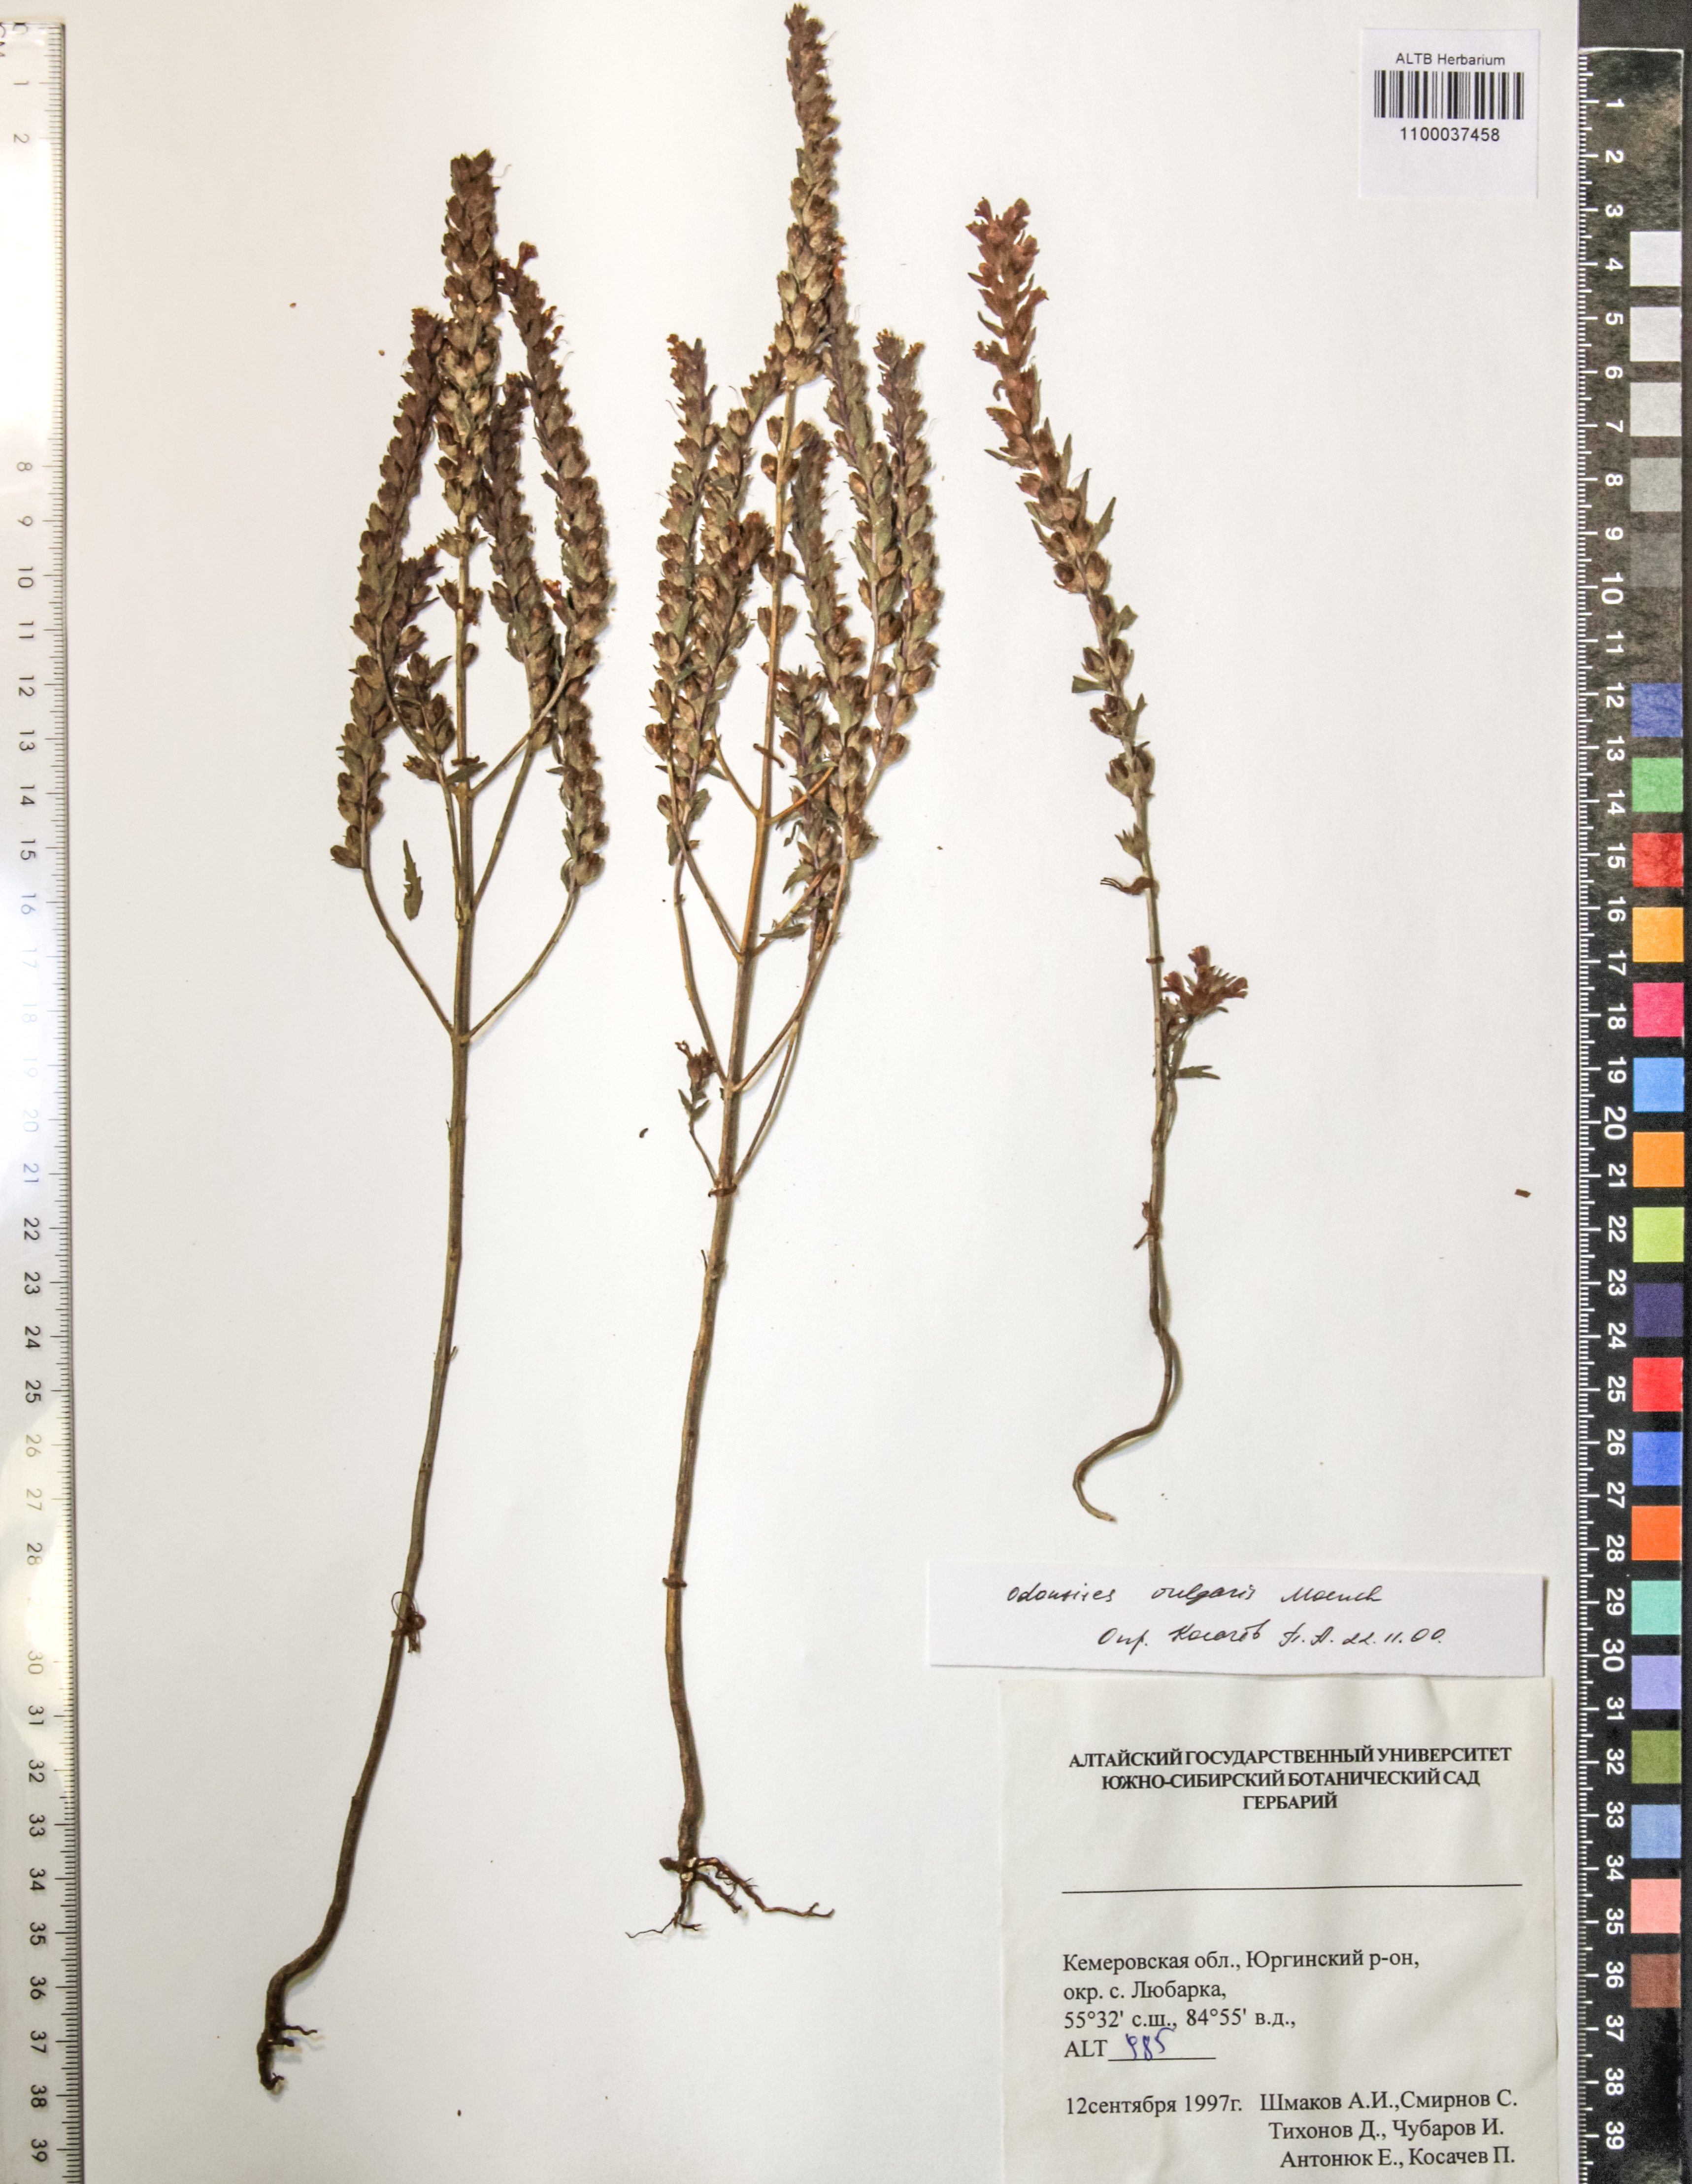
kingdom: Plantae
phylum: Tracheophyta
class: Magnoliopsida
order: Lamiales
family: Orobanchaceae
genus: Odontites
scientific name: Odontites vulgaris
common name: Broomrape
